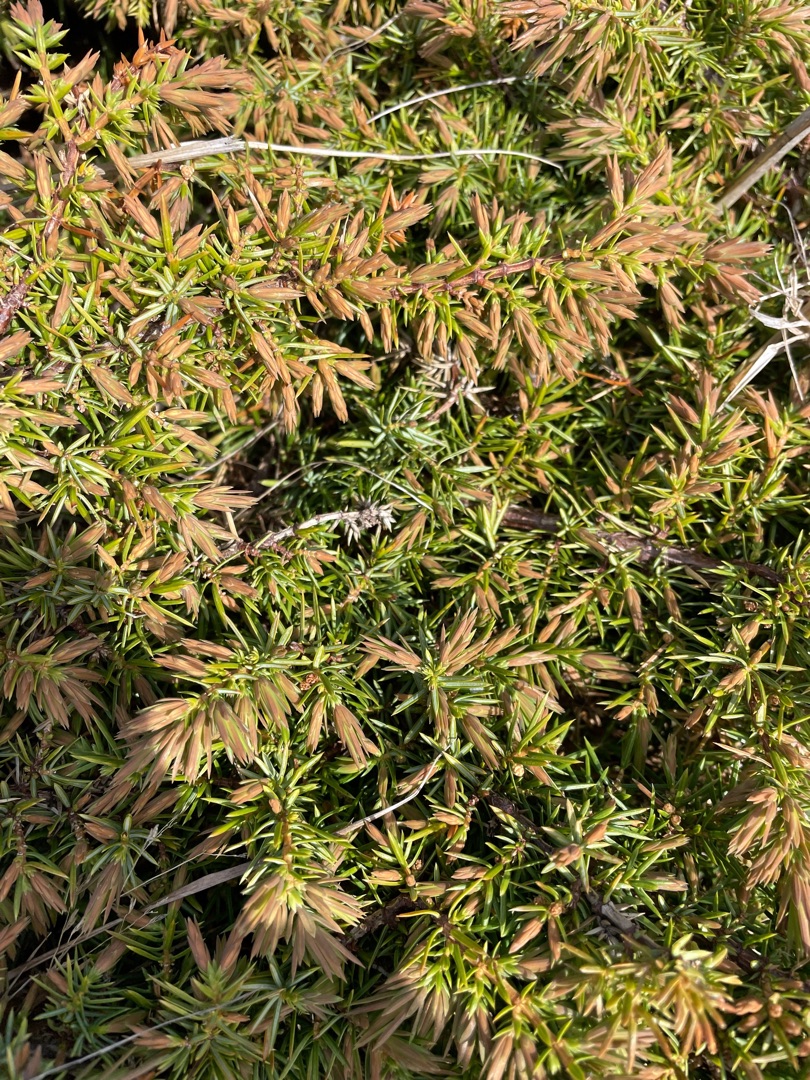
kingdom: Plantae
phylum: Tracheophyta
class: Pinopsida
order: Pinales
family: Cupressaceae
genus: Juniperus
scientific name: Juniperus communis
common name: Almindelig ene
